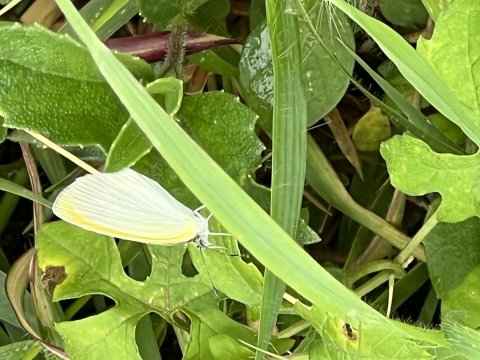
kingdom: Animalia
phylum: Arthropoda
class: Insecta
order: Lepidoptera
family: Pieridae
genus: Pyrisitia
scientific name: Pyrisitia venusta
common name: Pale Yellow
